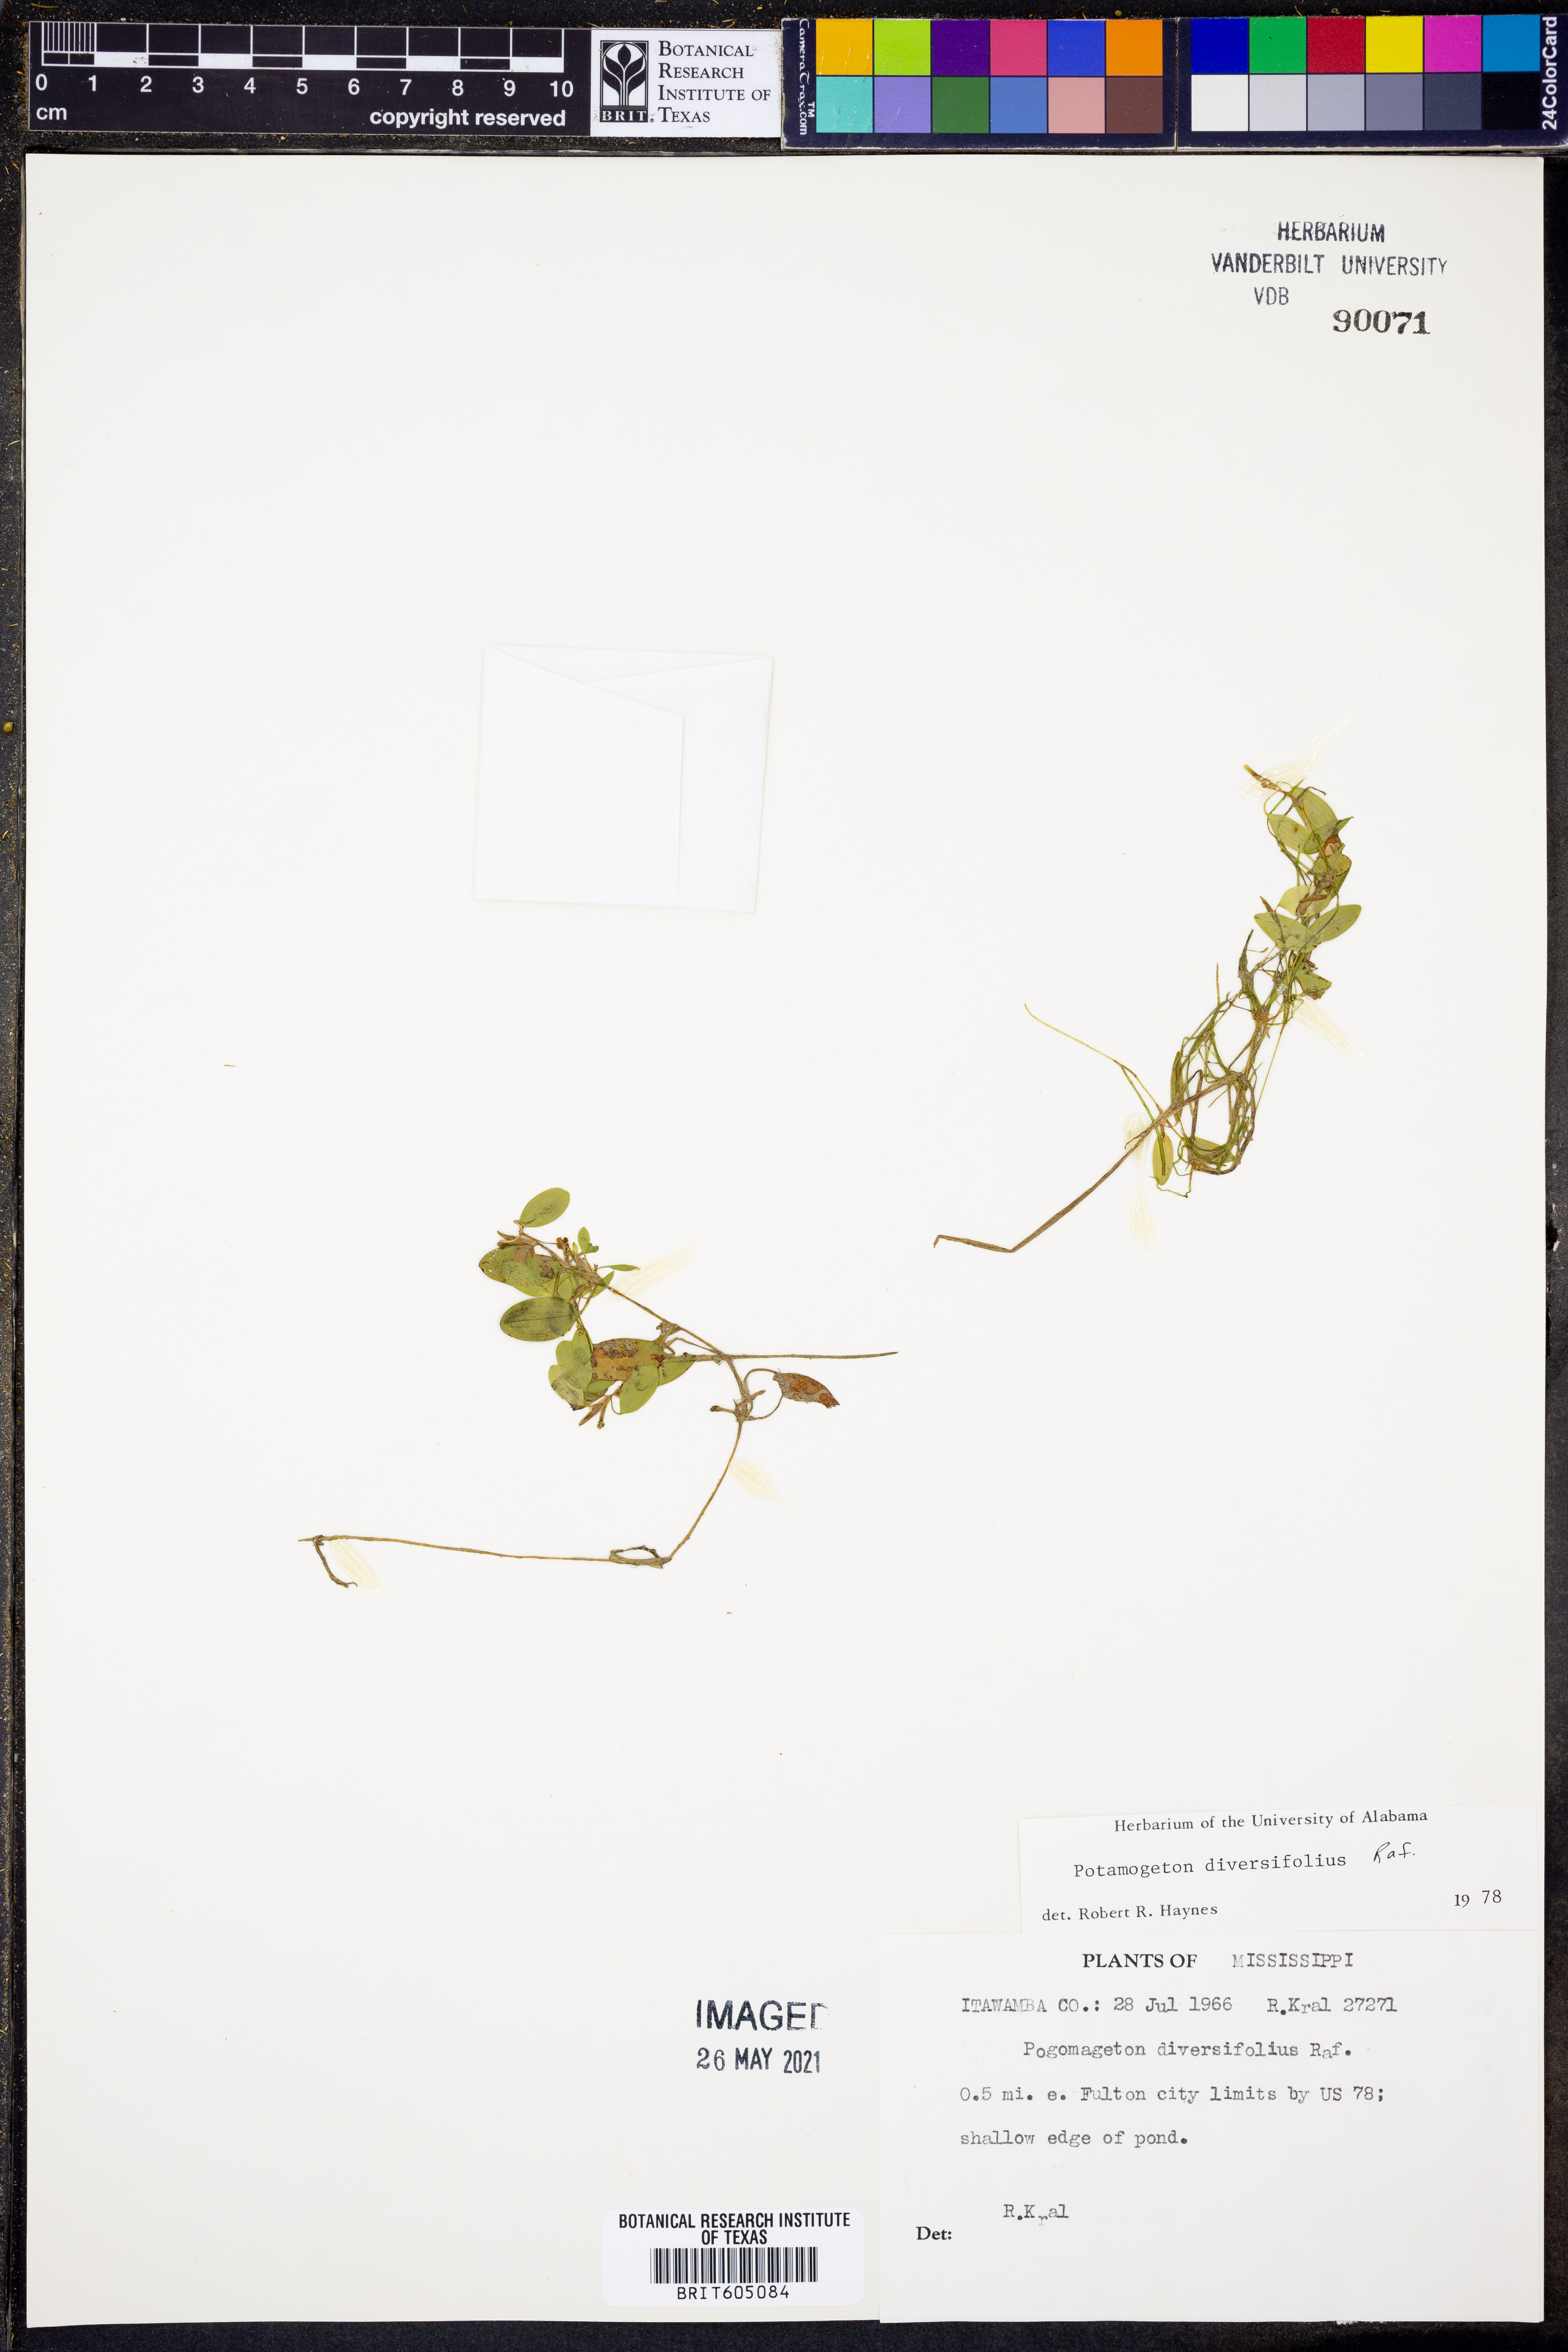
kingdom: Plantae
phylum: Tracheophyta
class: Liliopsida
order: Alismatales
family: Potamogetonaceae
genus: Potamogeton
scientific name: Potamogeton diversifolius
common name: Water-thread pondweed
